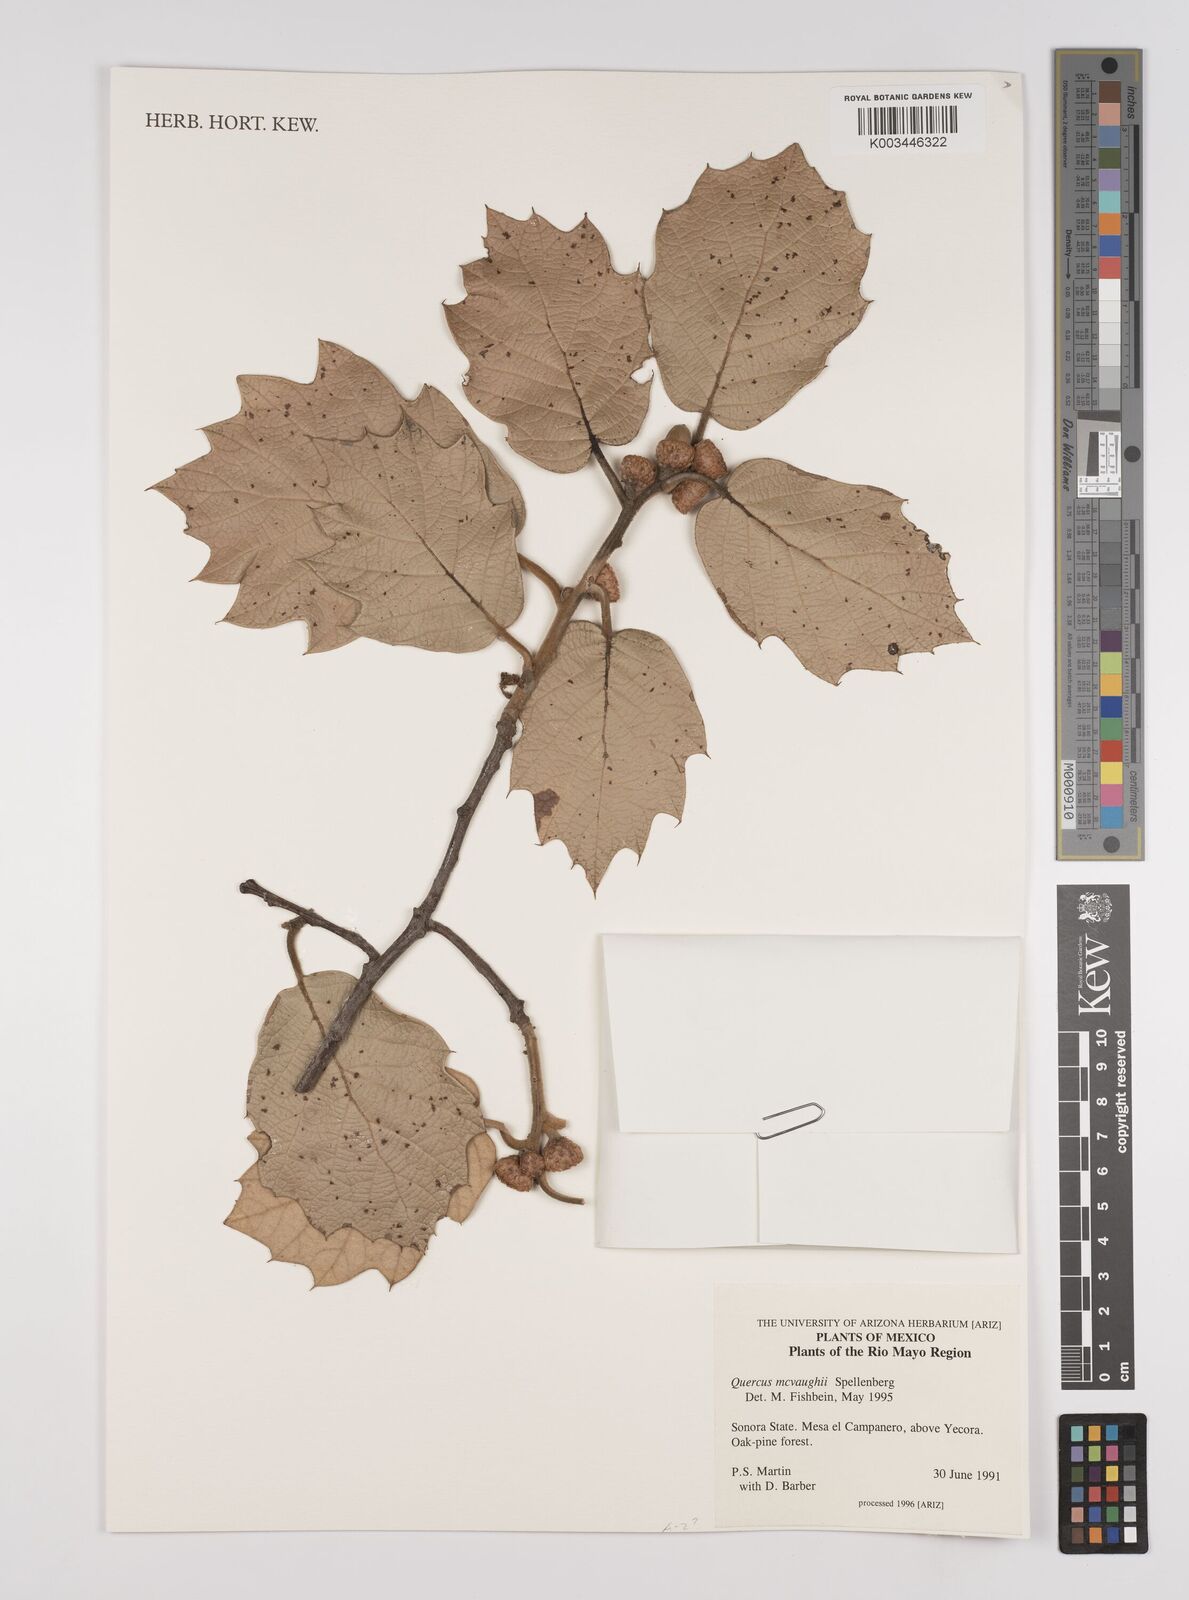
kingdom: Plantae
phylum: Tracheophyta
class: Magnoliopsida
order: Fagales
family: Fagaceae
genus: Quercus
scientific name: Quercus mcvaughii
